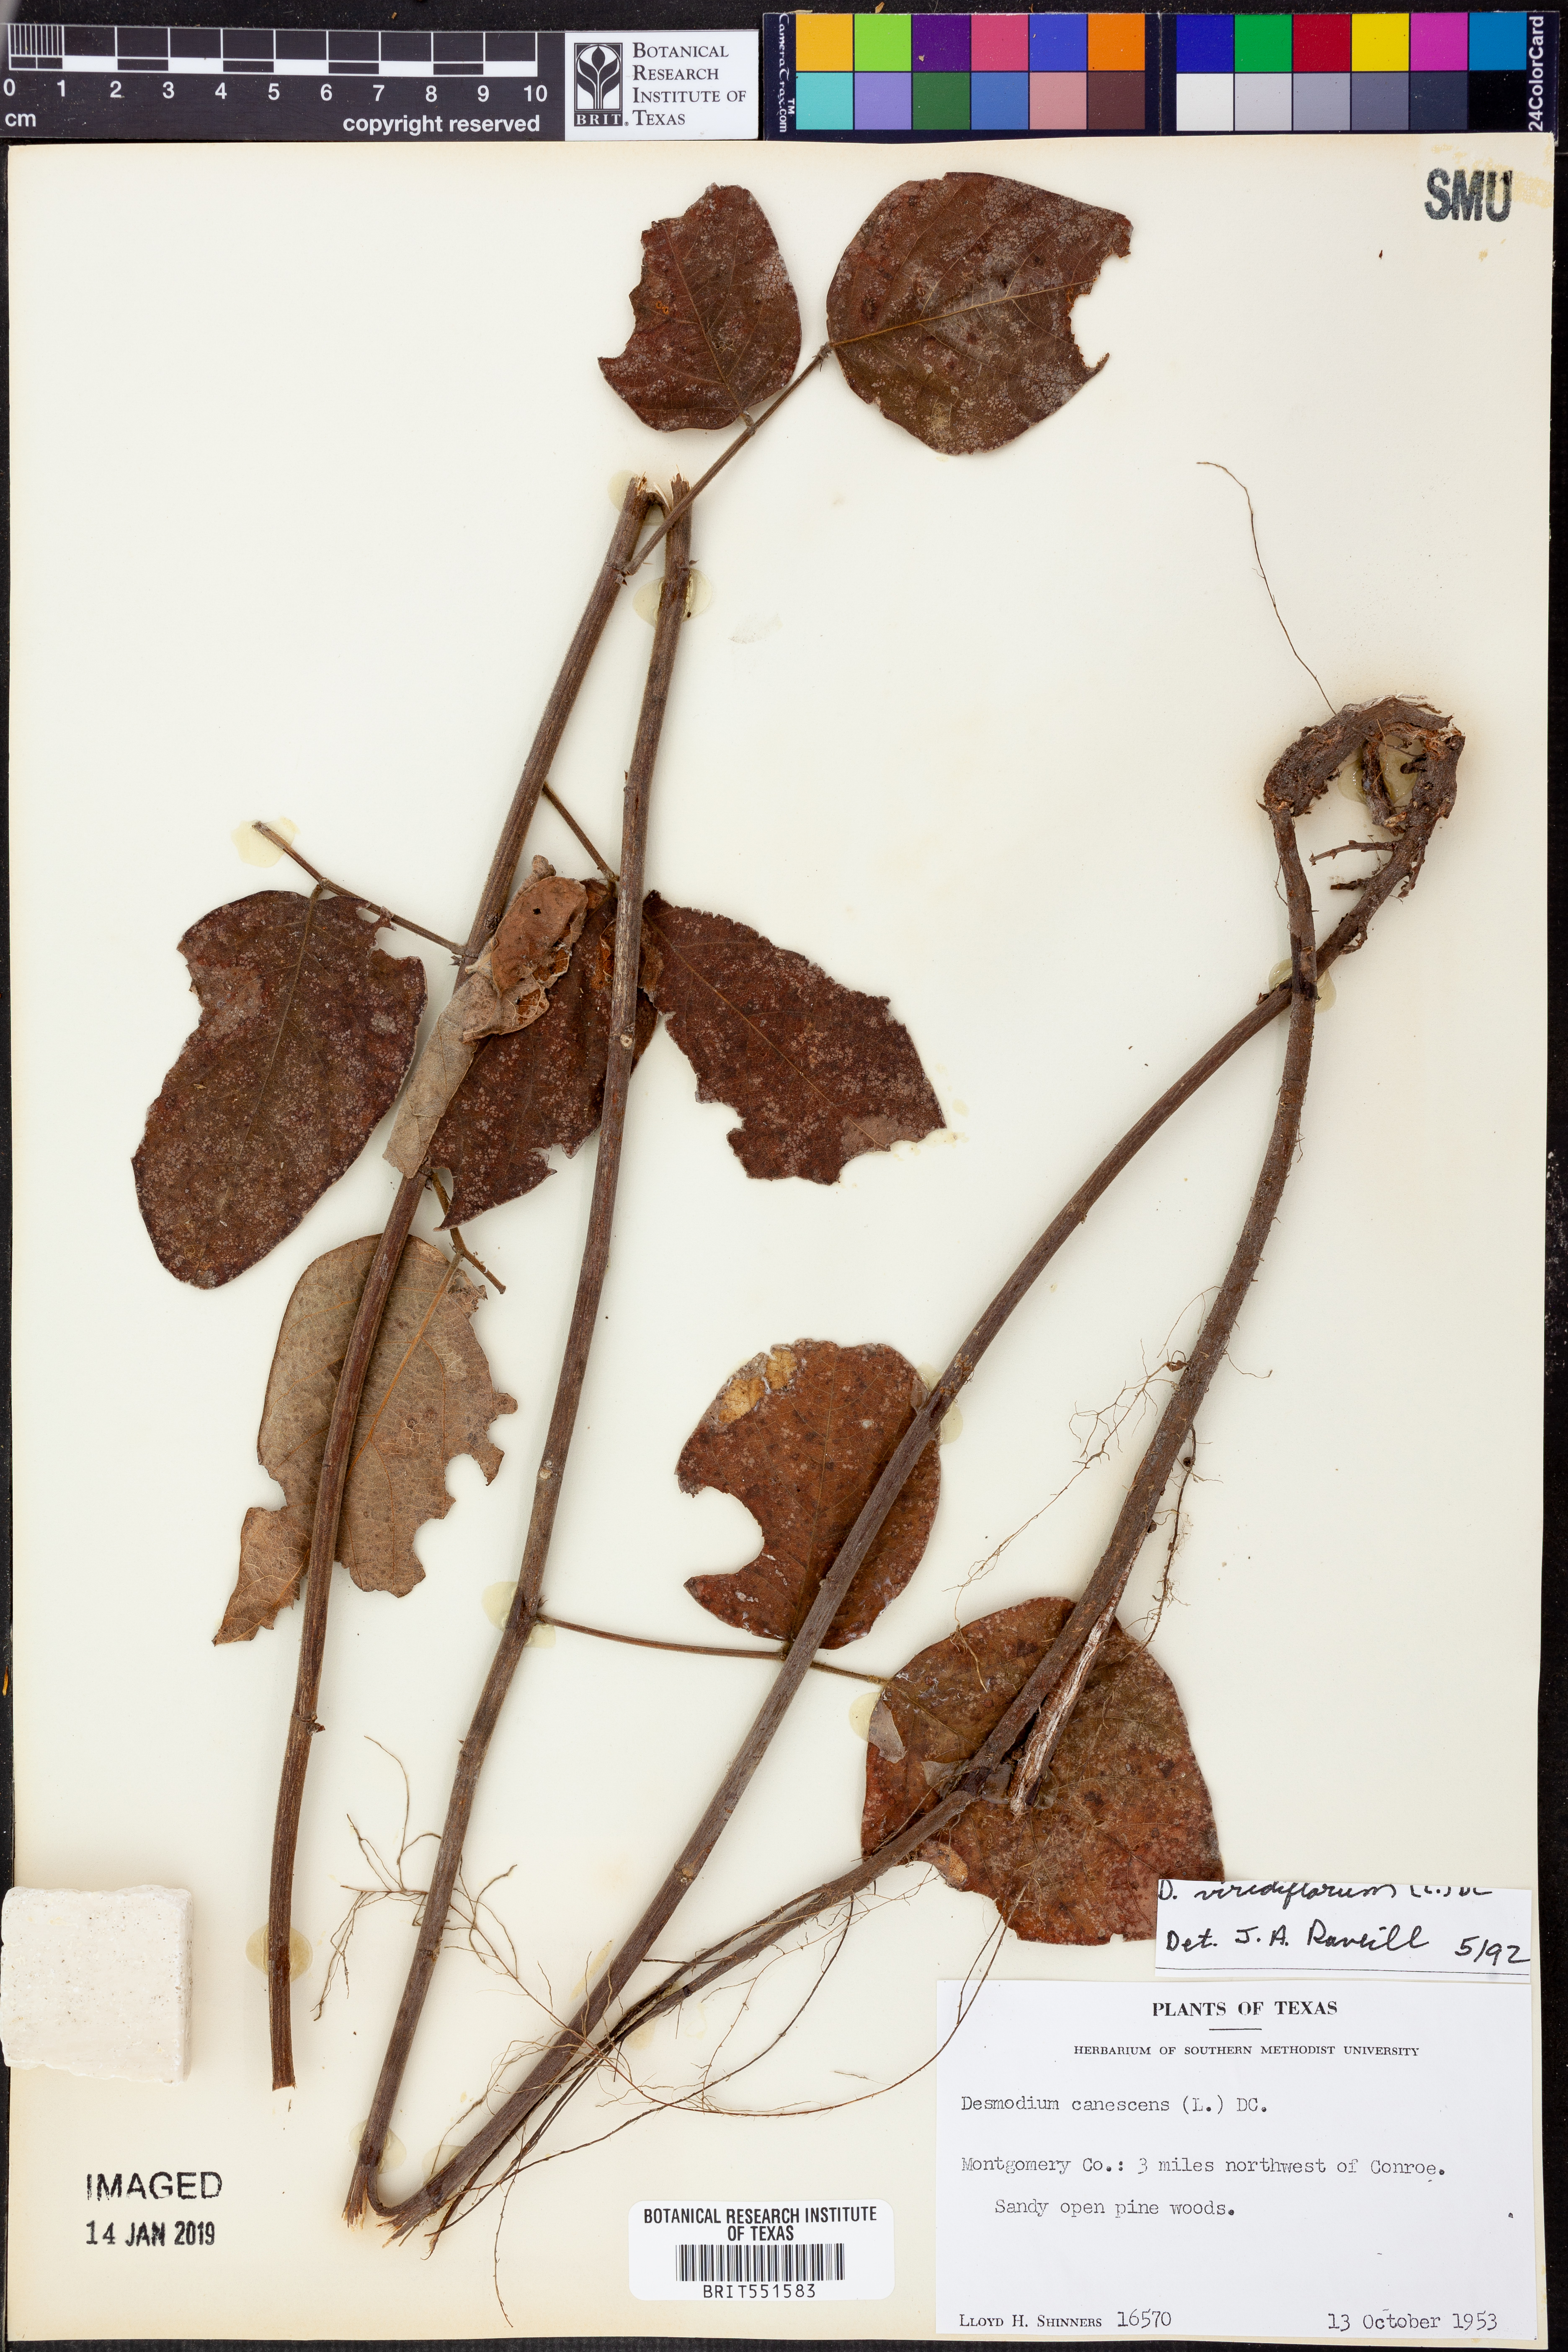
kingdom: Plantae
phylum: Tracheophyta
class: Magnoliopsida
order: Fabales
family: Fabaceae
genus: Desmodium
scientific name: Desmodium viridiflorum
